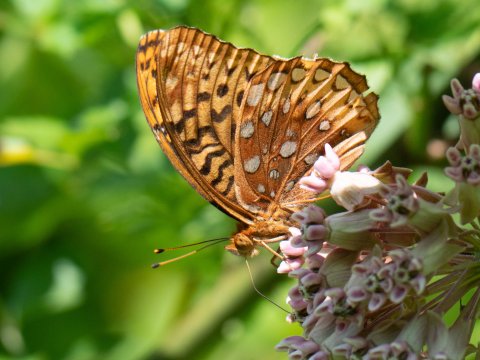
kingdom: Animalia
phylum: Arthropoda
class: Insecta
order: Lepidoptera
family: Nymphalidae
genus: Speyeria
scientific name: Speyeria cybele
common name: Great Spangled Fritillary
